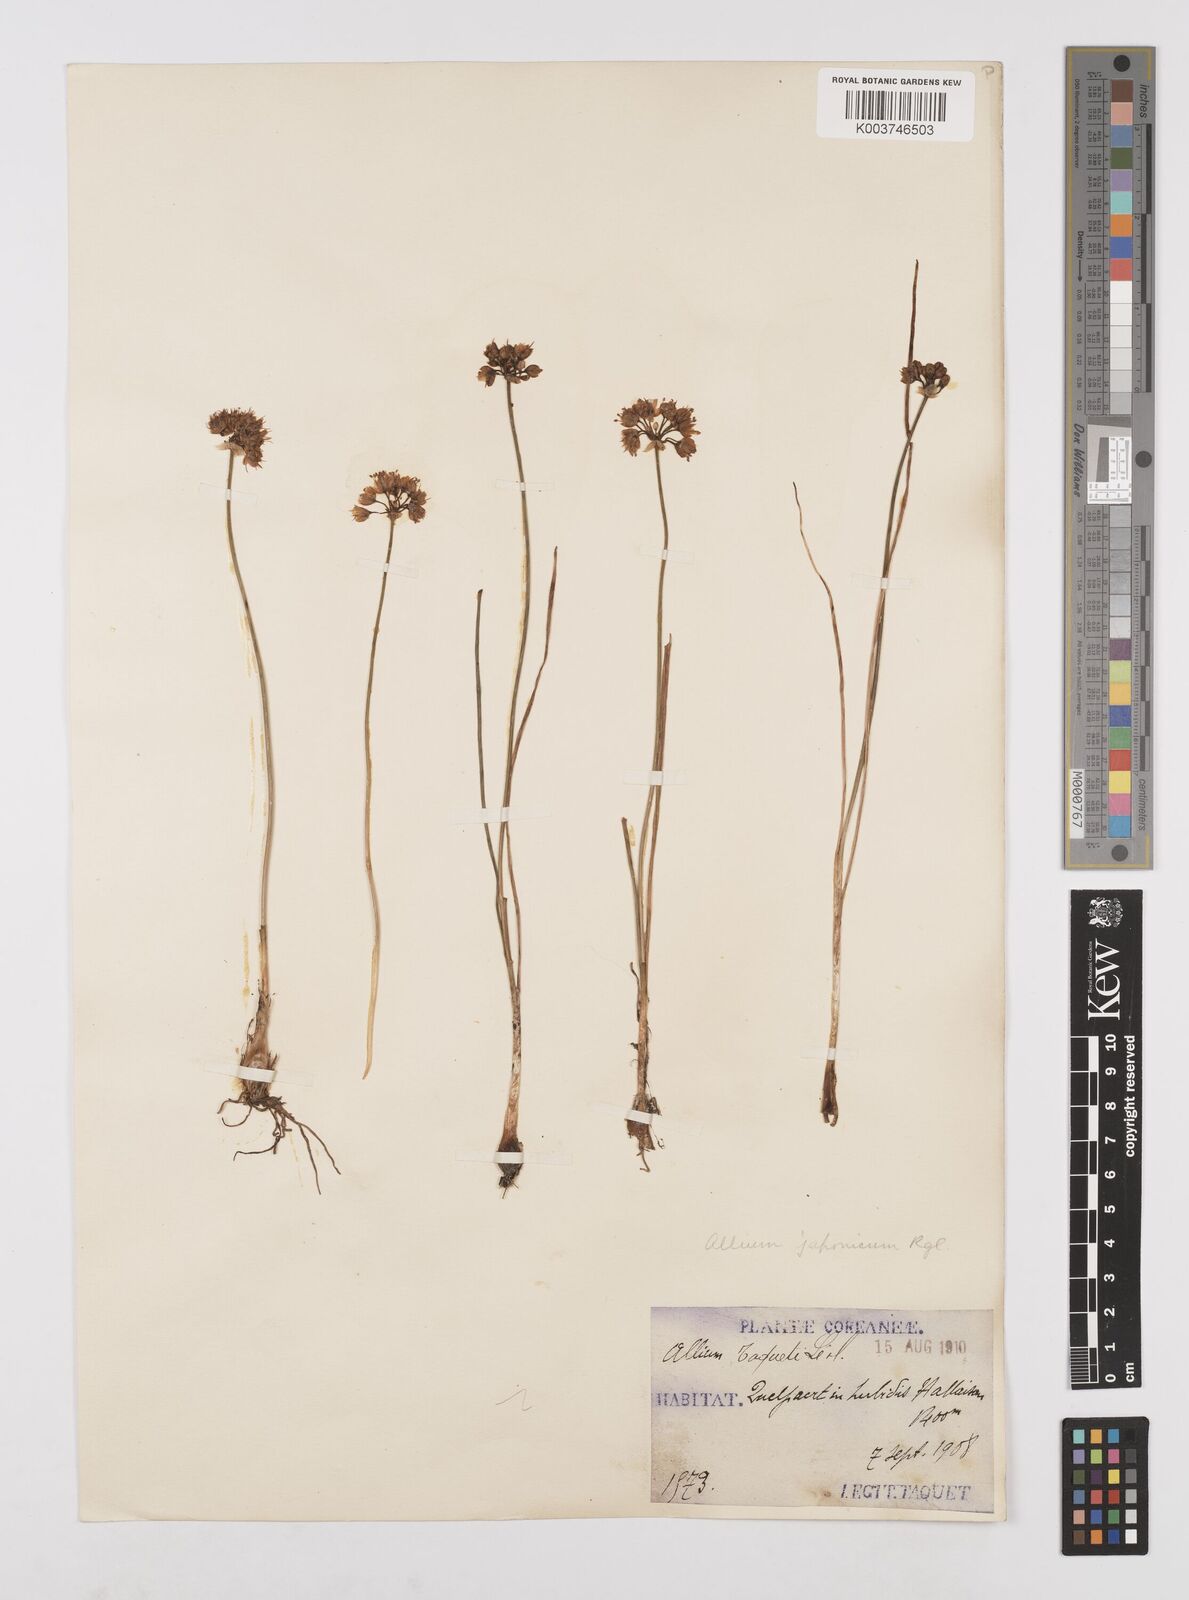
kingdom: Plantae
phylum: Tracheophyta
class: Liliopsida
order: Asparagales
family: Amaryllidaceae
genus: Allium
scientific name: Allium sacculiferum
